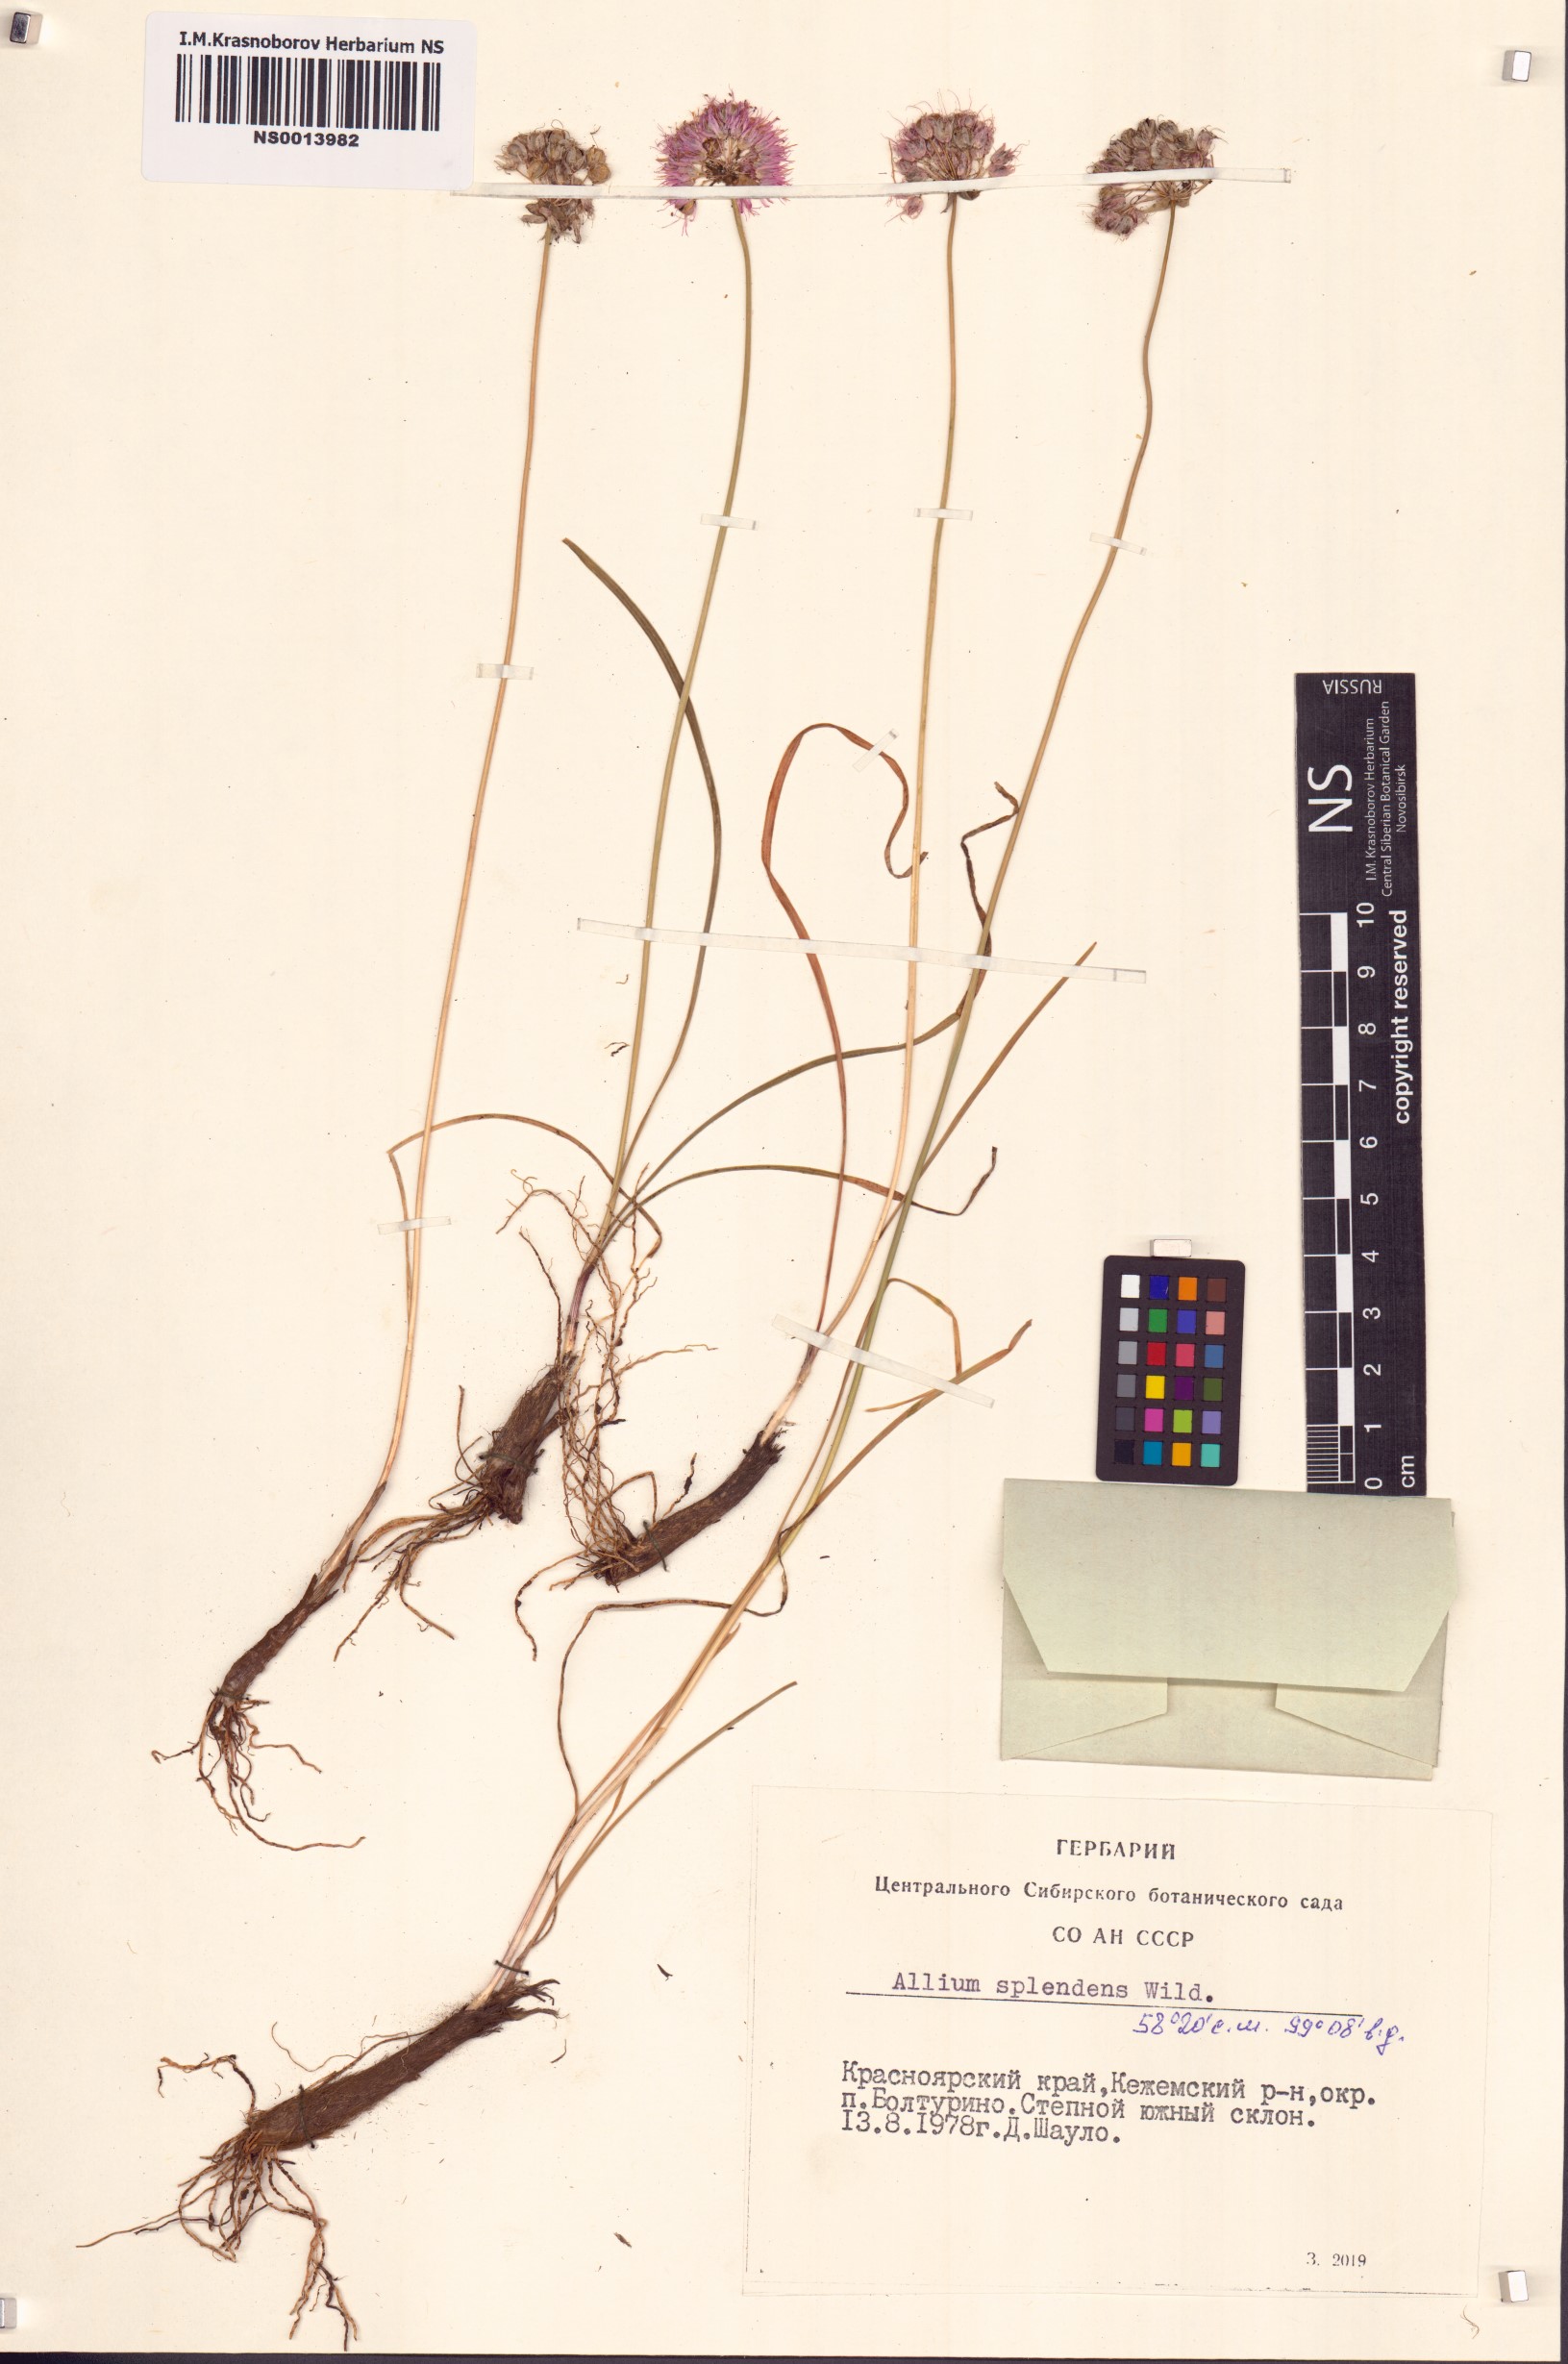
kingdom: Plantae
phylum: Tracheophyta
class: Liliopsida
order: Asparagales
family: Amaryllidaceae
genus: Allium
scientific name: Allium splendens
